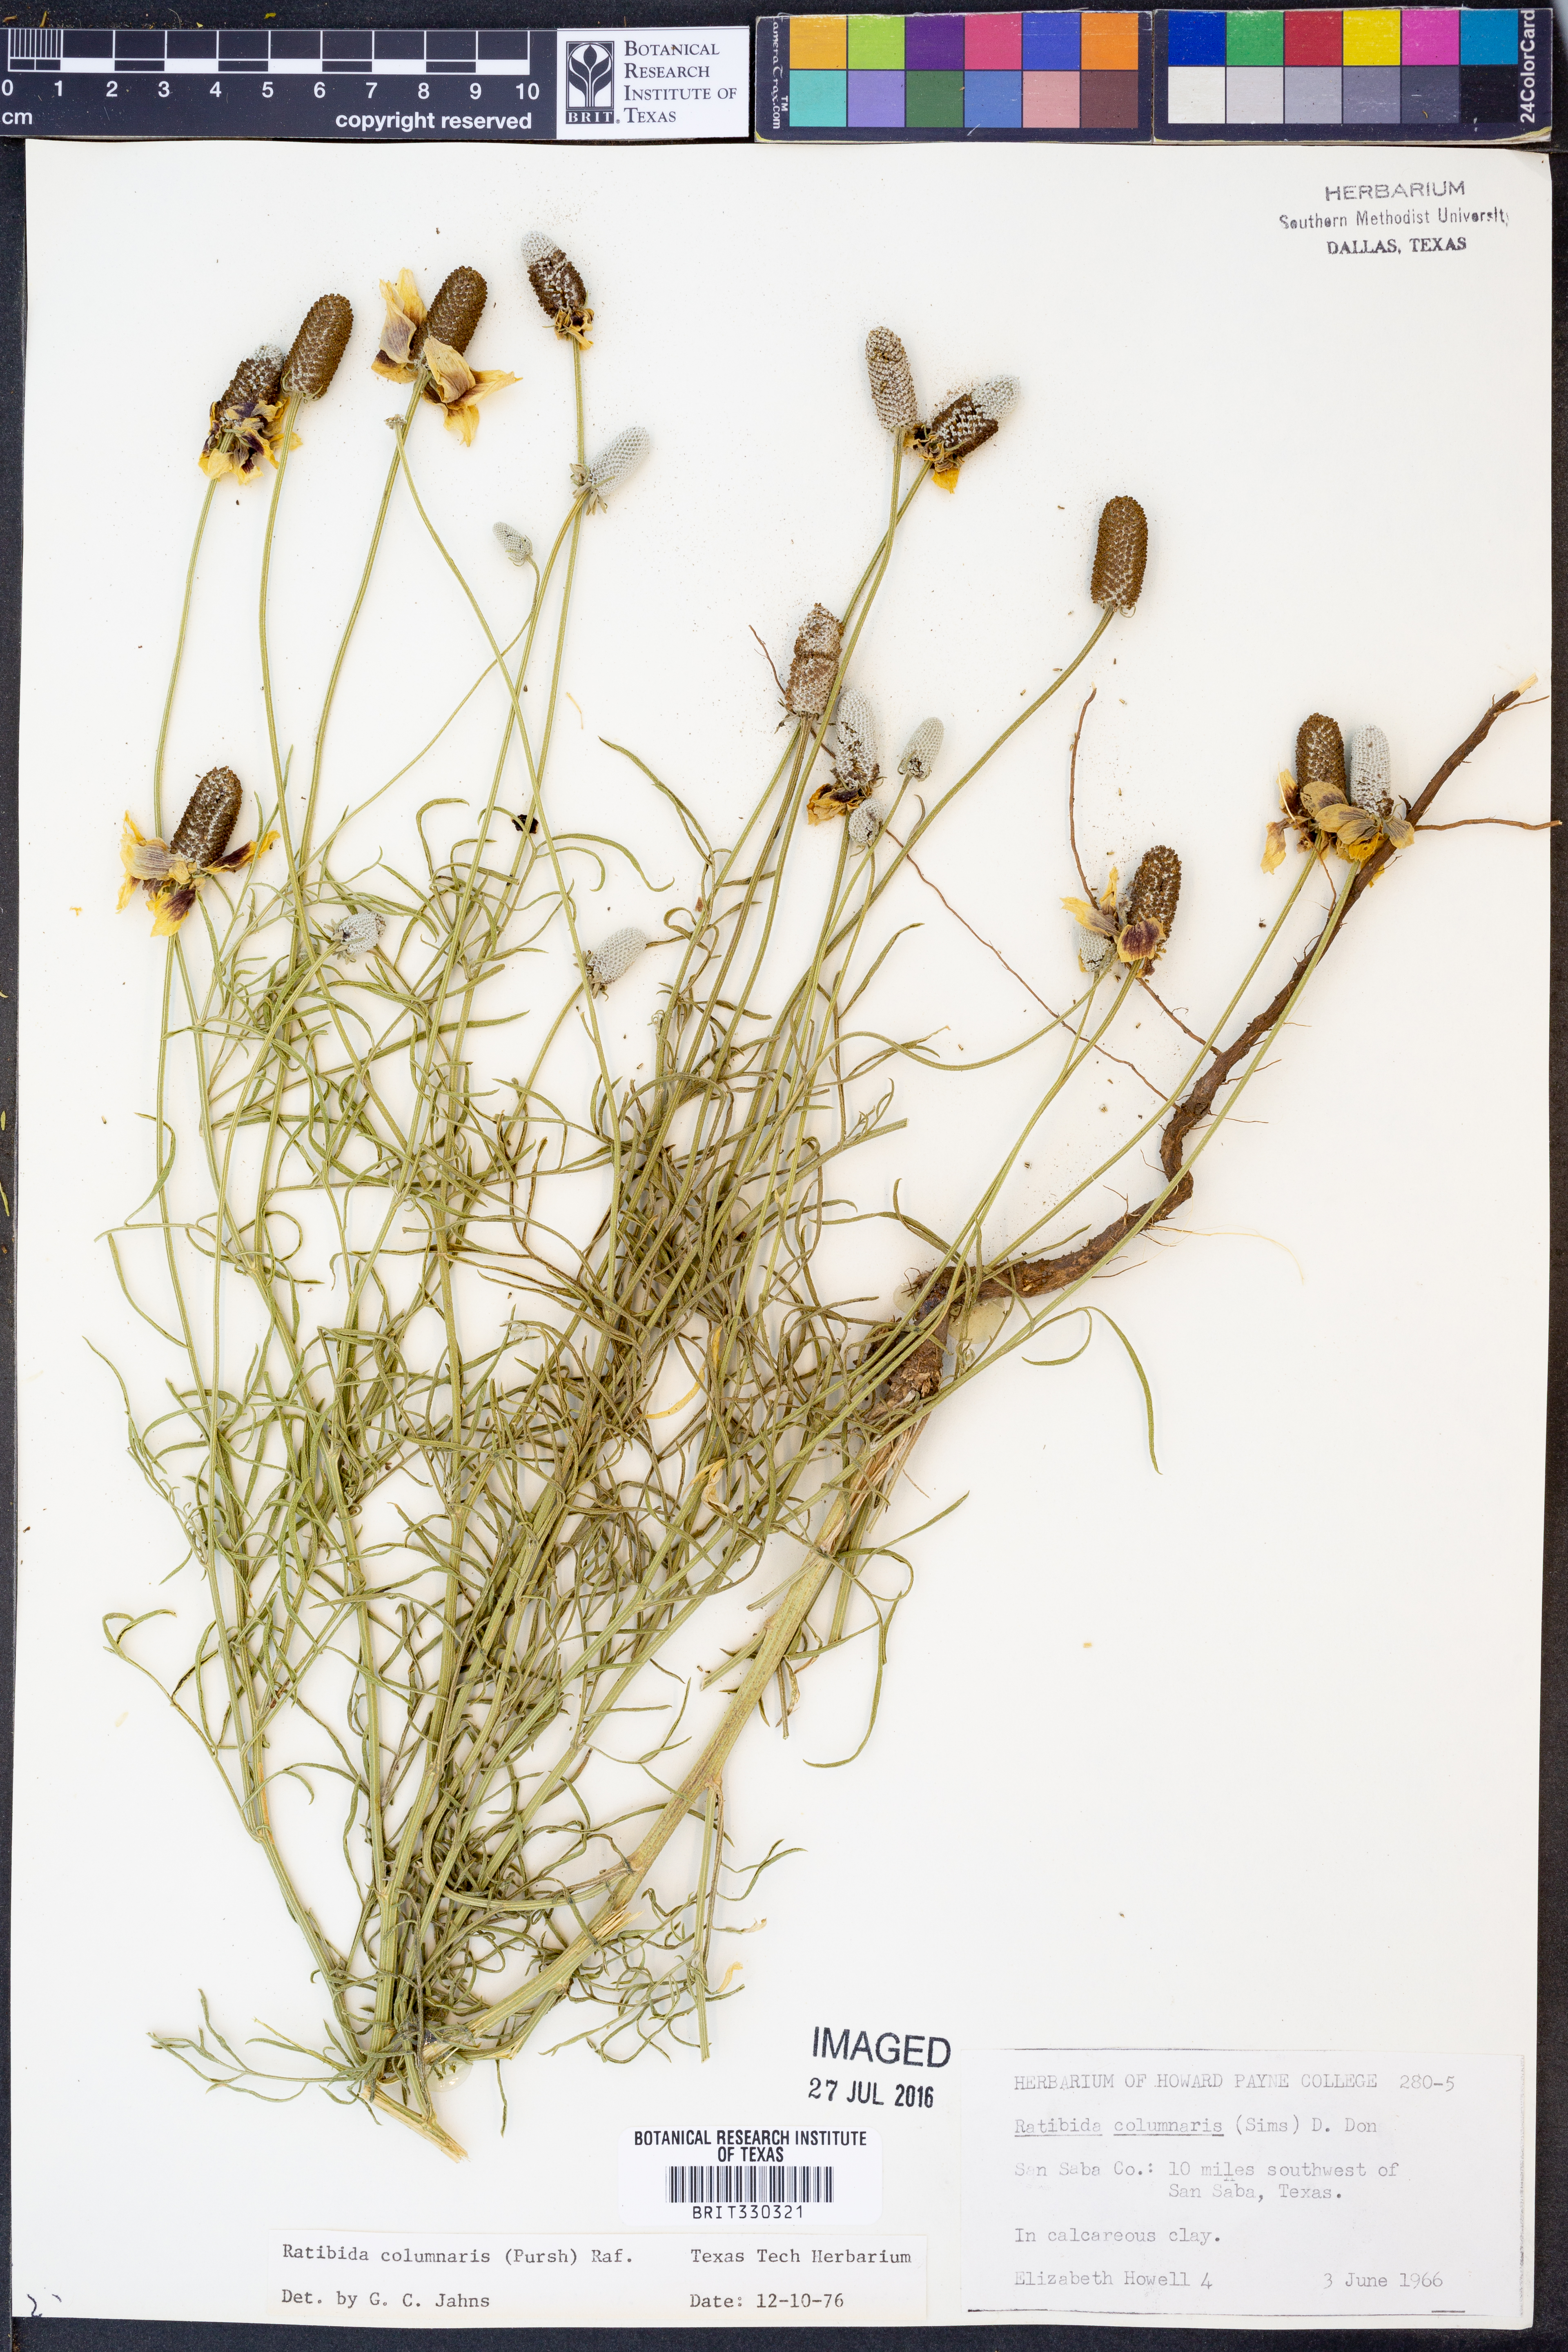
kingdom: Plantae
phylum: Tracheophyta
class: Magnoliopsida
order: Asterales
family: Asteraceae
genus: Ratibida
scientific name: Ratibida columnifera
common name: Prairie coneflower
